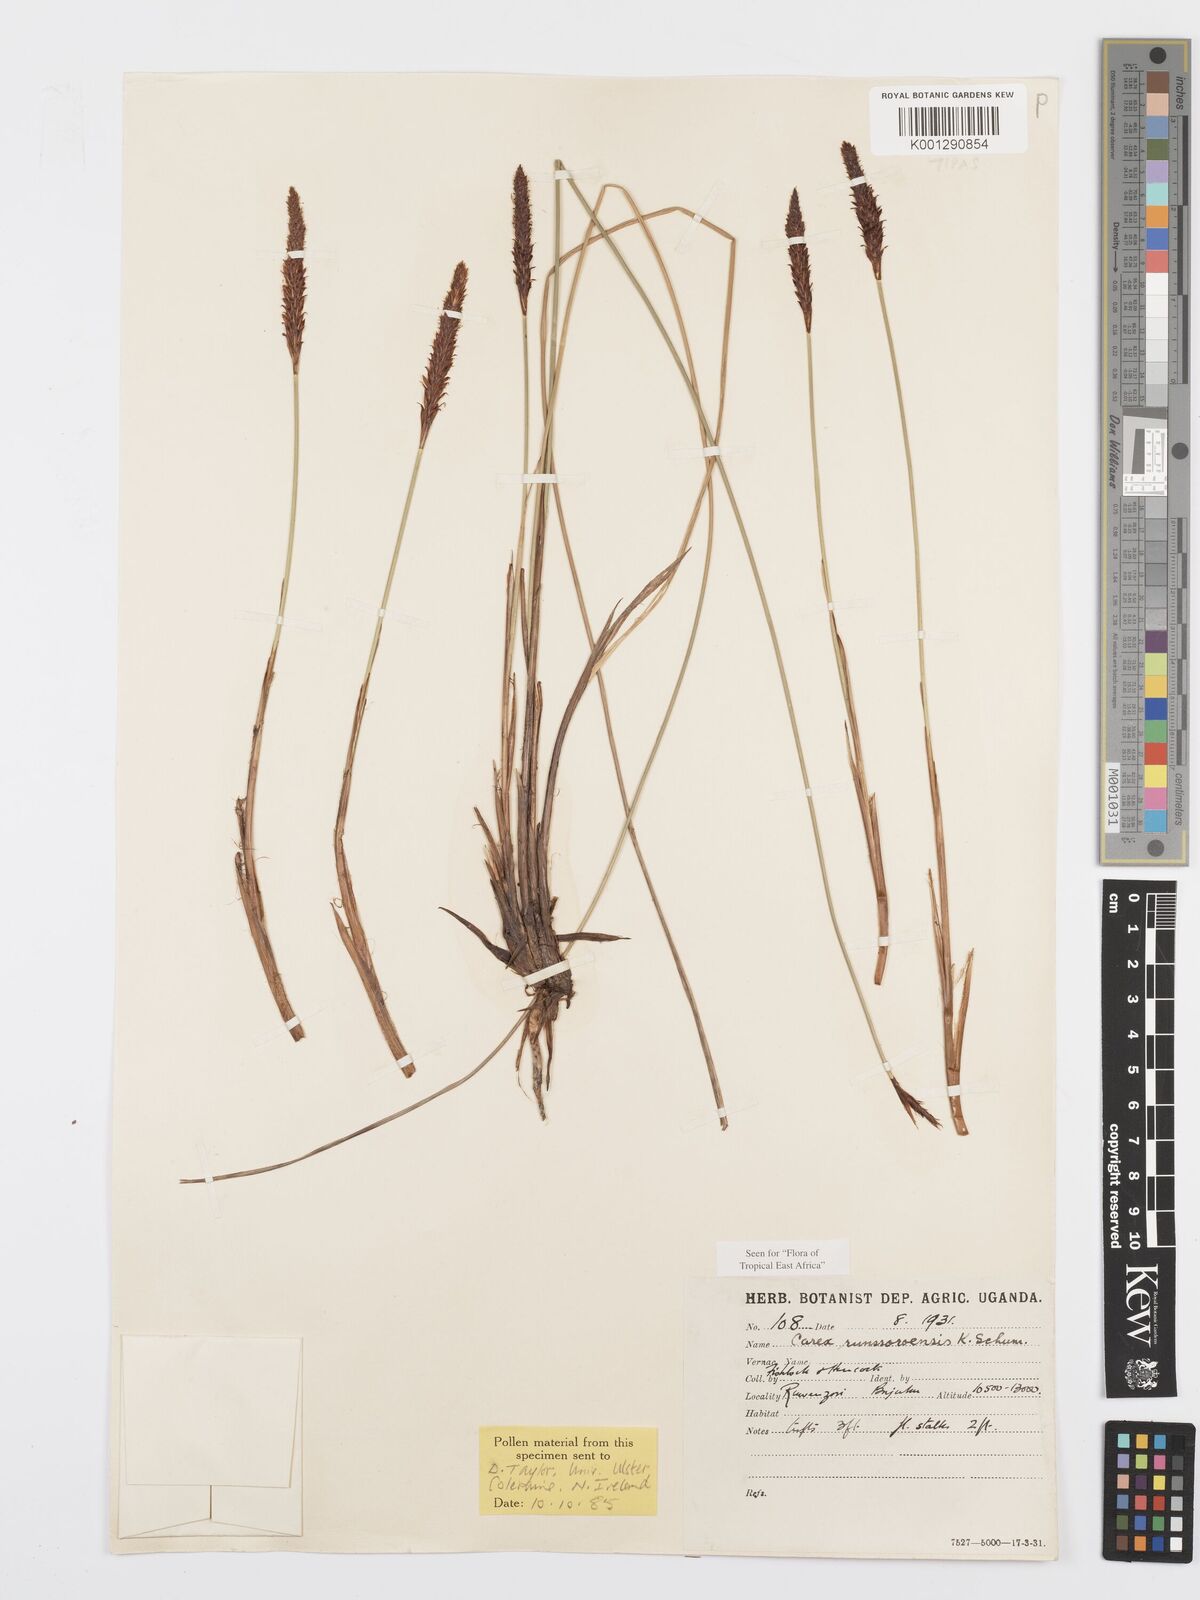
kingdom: Plantae
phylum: Tracheophyta
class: Liliopsida
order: Poales
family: Cyperaceae
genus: Carex
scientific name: Carex runssoroensis
